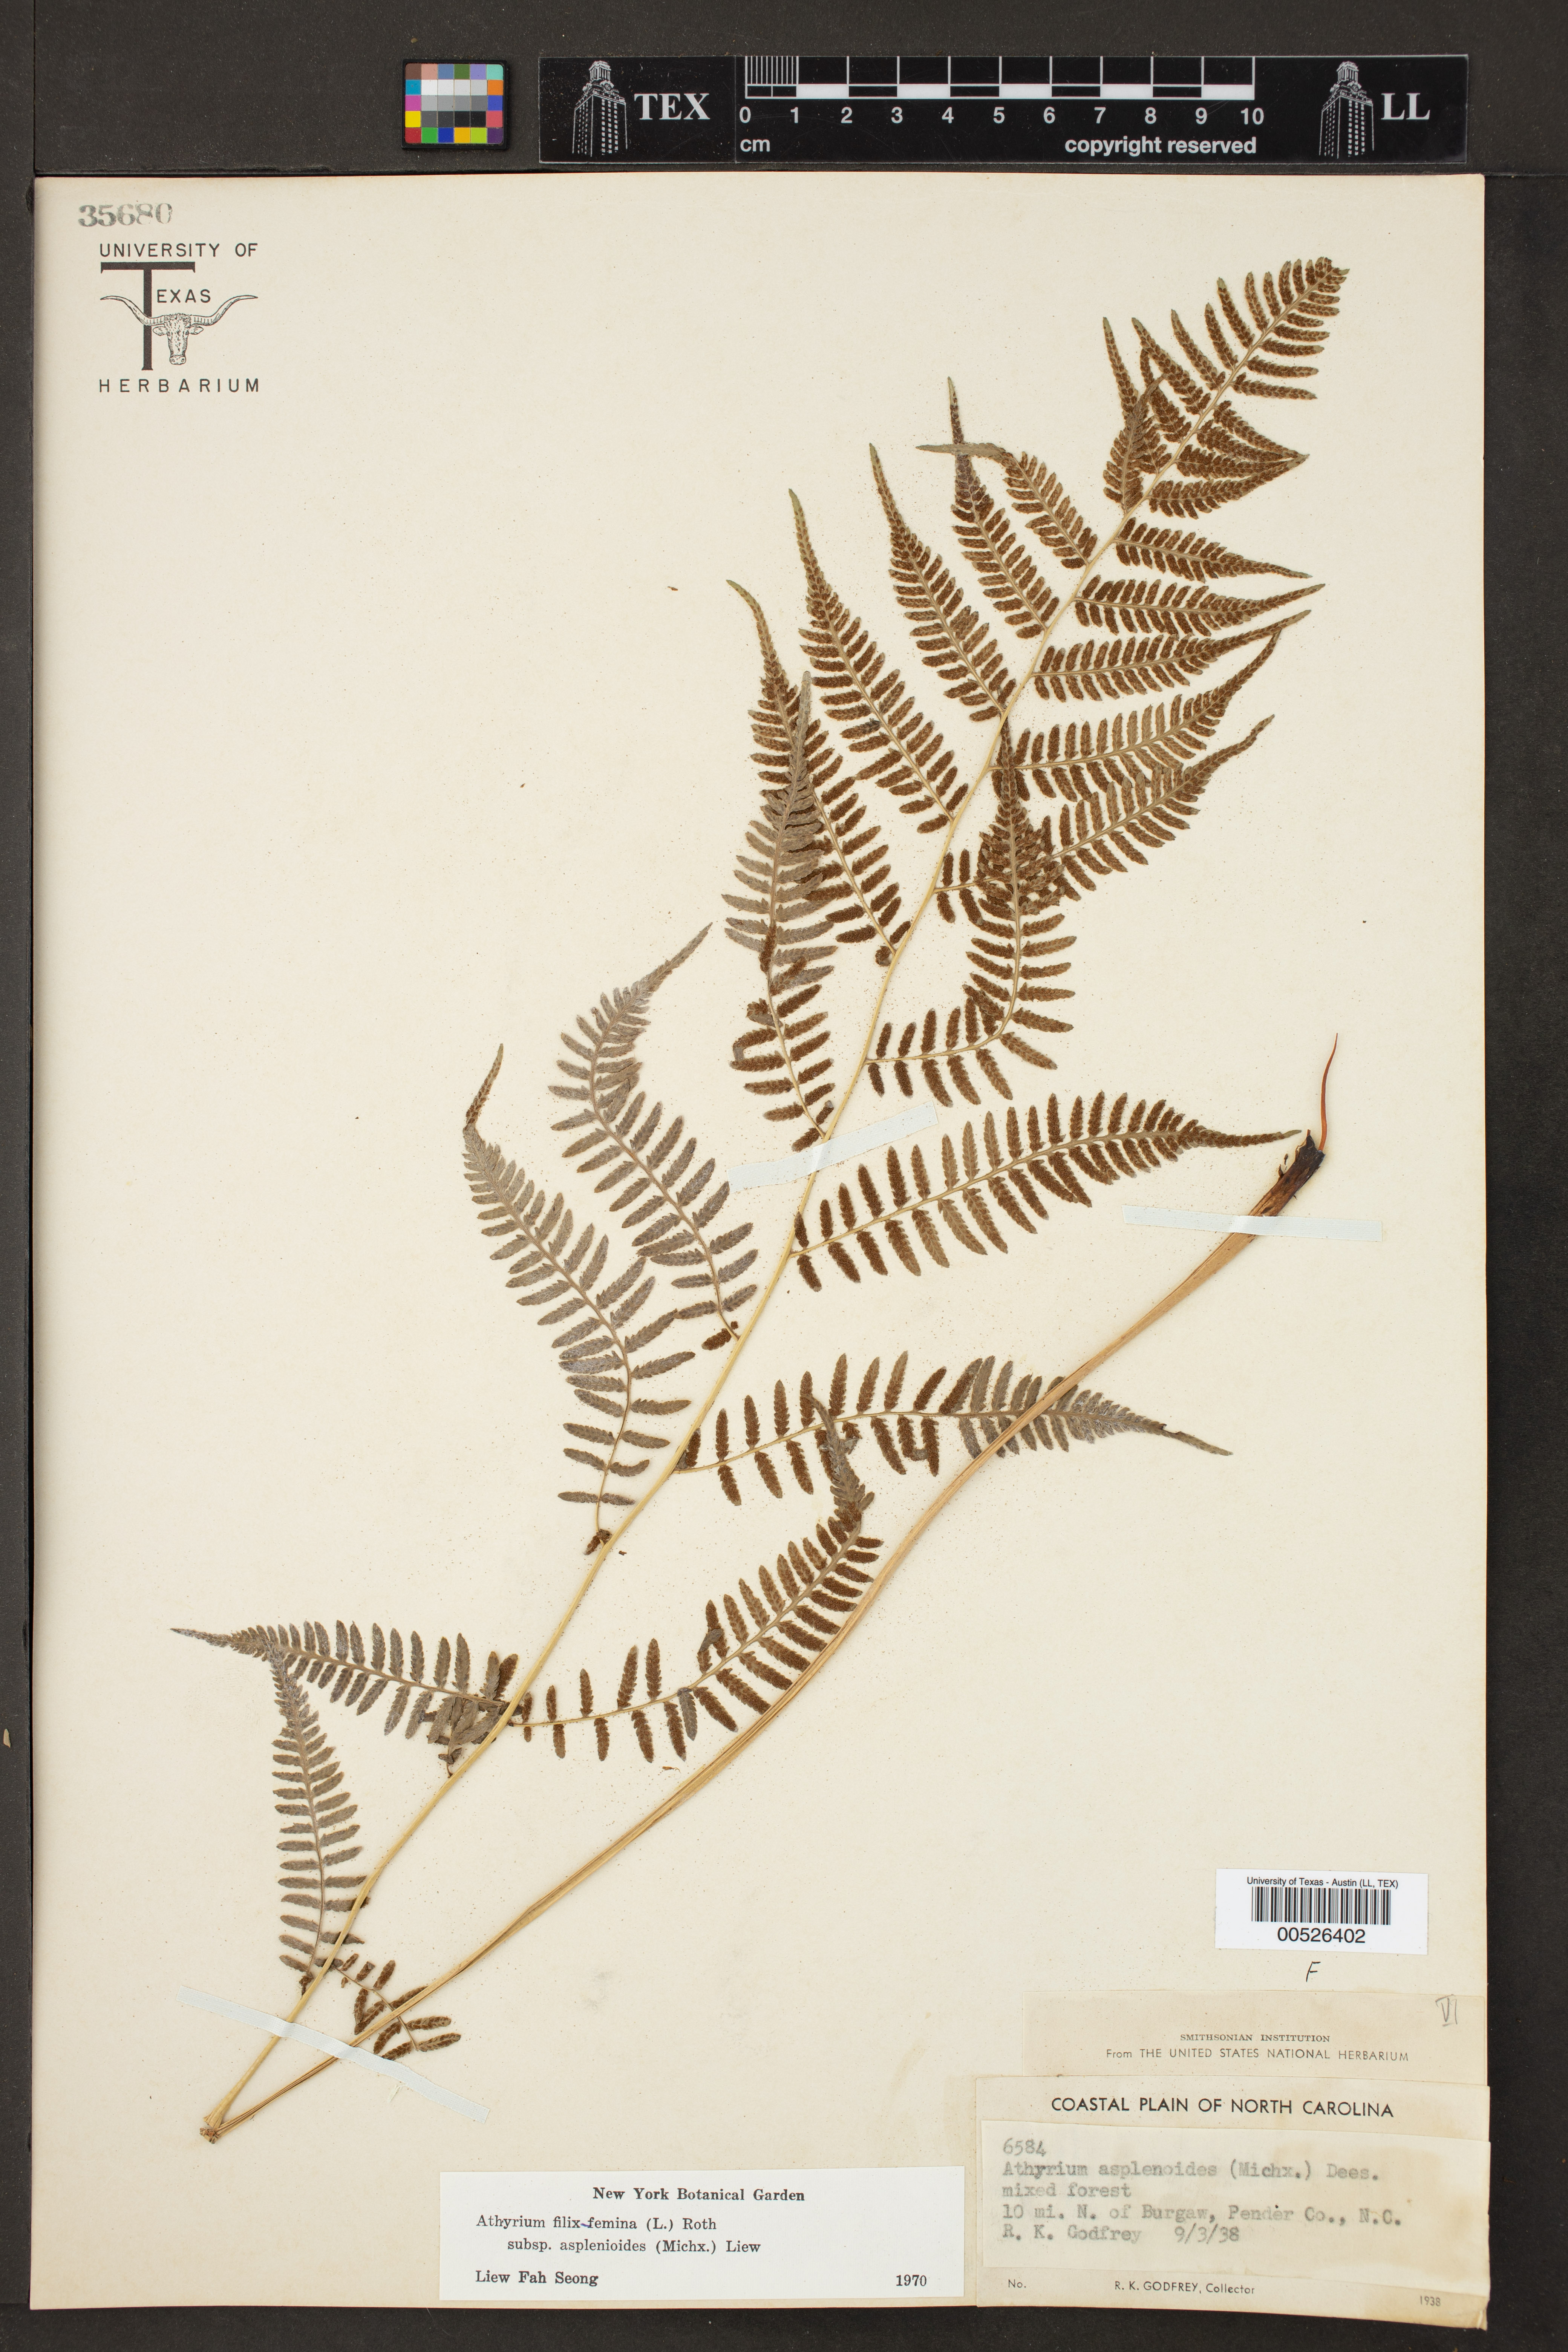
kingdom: Plantae
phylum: Tracheophyta
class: Polypodiopsida
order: Polypodiales
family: Athyriaceae
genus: Athyrium
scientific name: Athyrium asplenioides
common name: Southern lady fern
